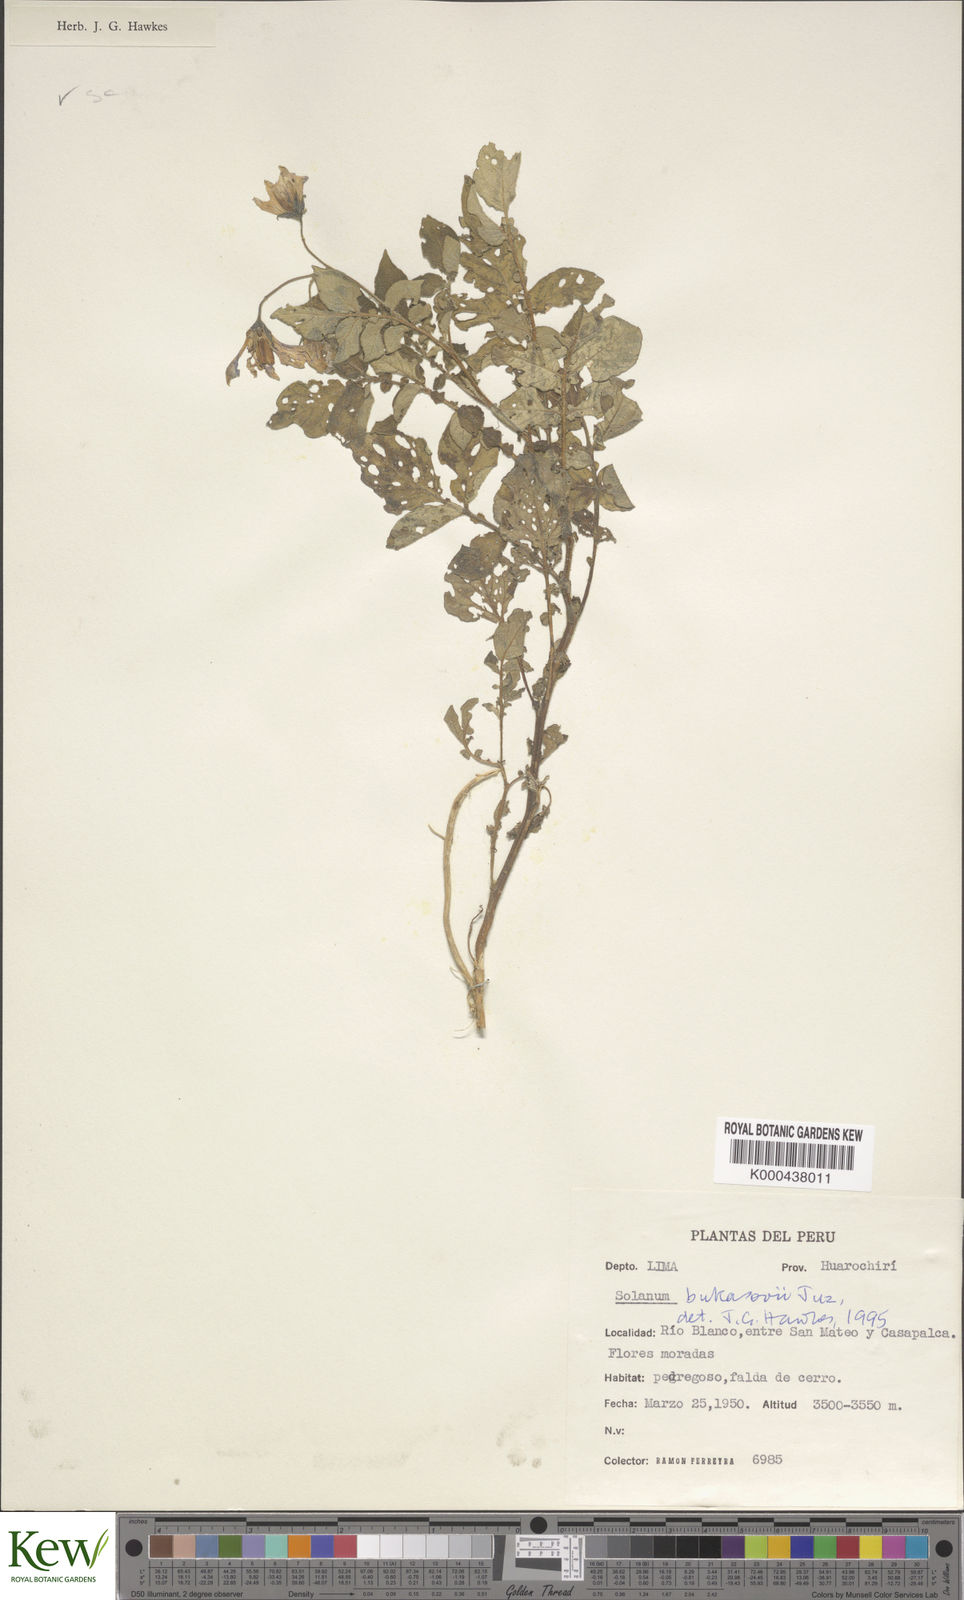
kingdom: Plantae
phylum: Tracheophyta
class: Magnoliopsida
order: Solanales
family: Solanaceae
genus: Solanum
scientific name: Solanum candolleanum
